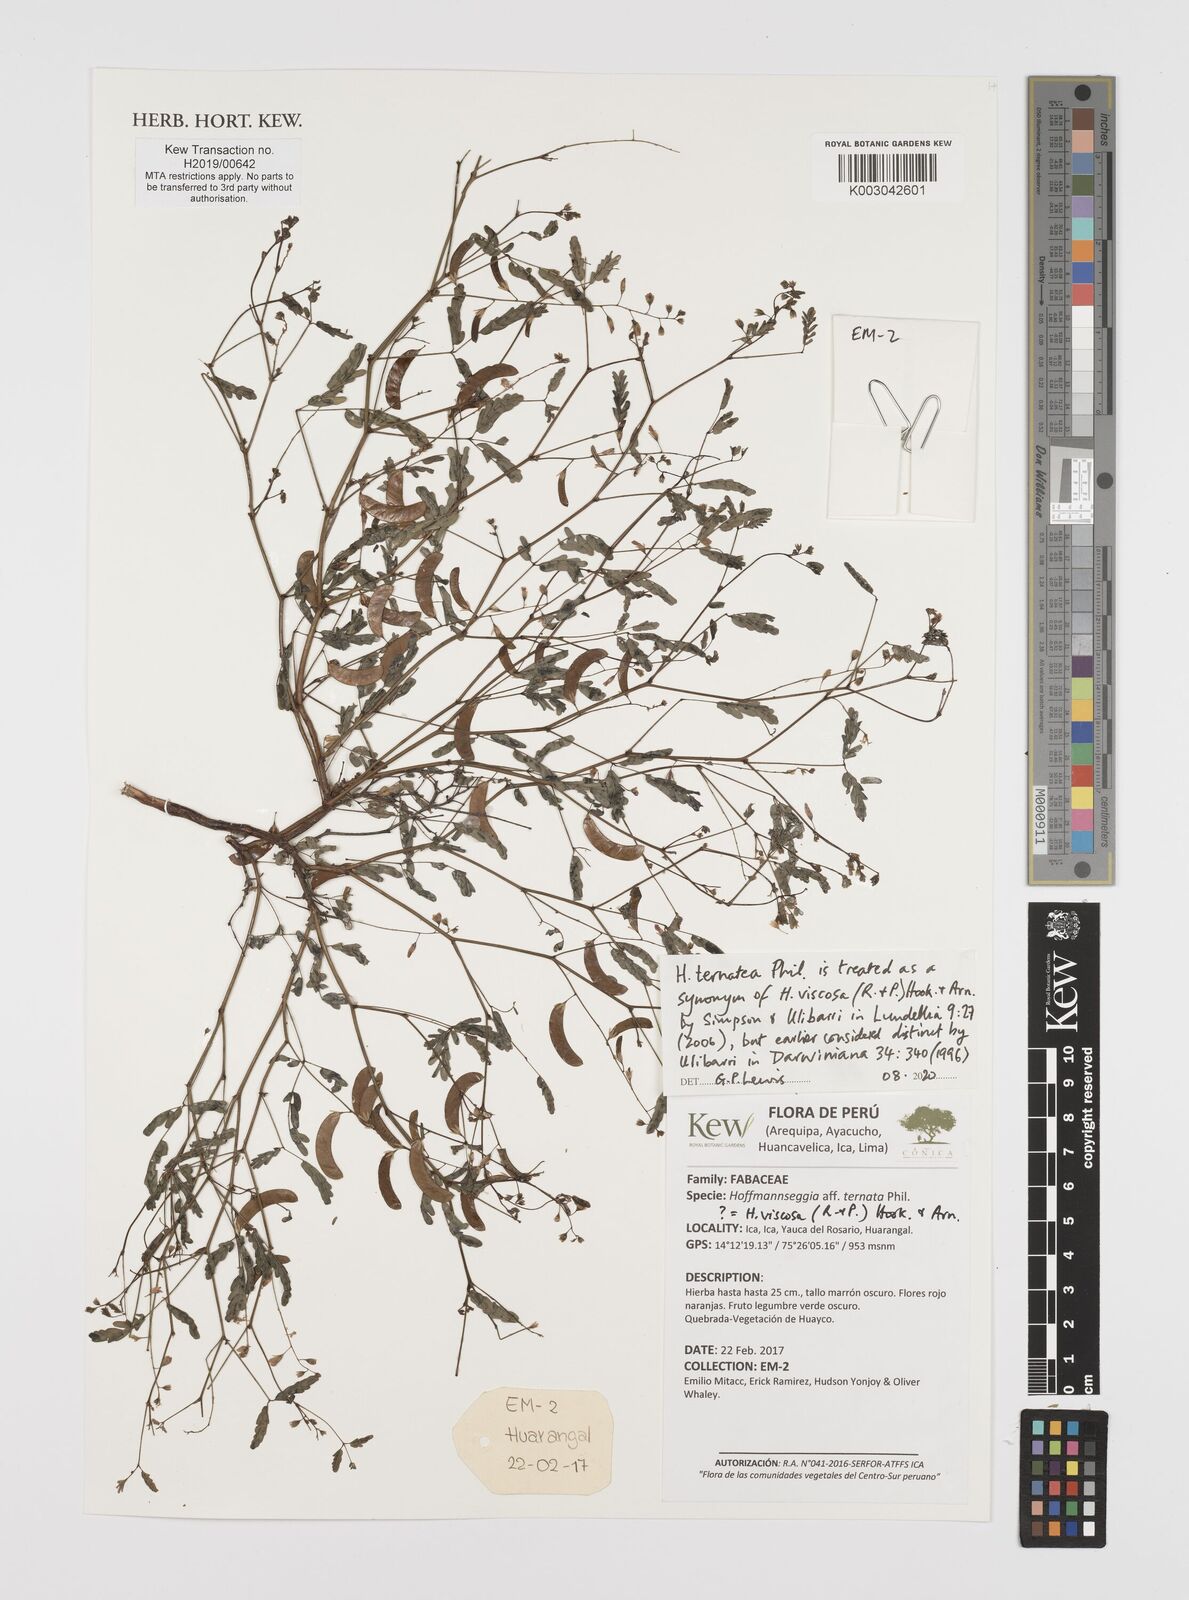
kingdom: Plantae
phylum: Tracheophyta
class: Magnoliopsida
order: Fabales
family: Fabaceae
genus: Hoffmannseggia
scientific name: Hoffmannseggia viscosa
